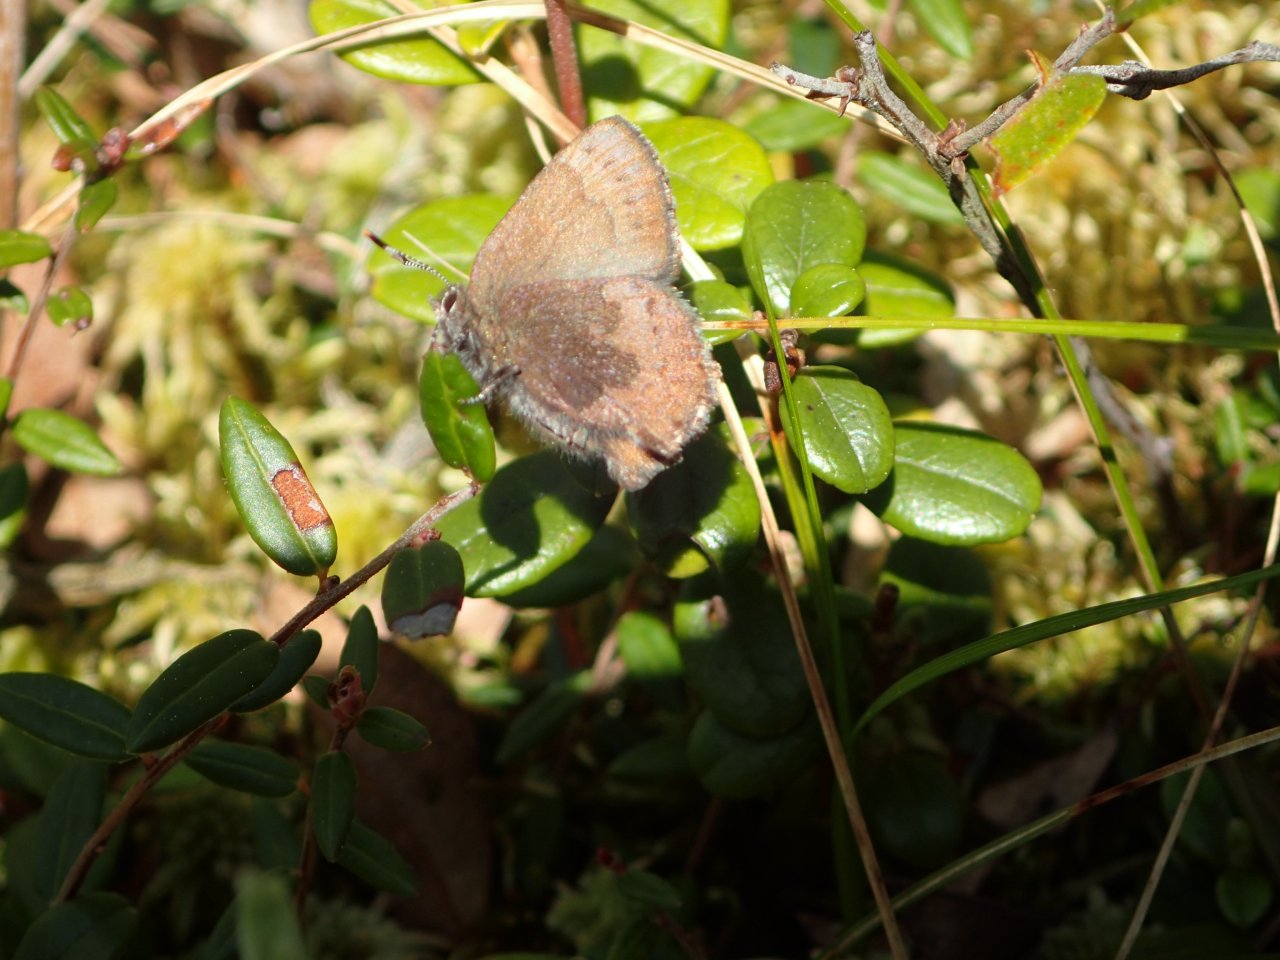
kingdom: Animalia
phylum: Arthropoda
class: Insecta
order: Lepidoptera
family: Lycaenidae
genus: Incisalia
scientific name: Incisalia irioides
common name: Brown Elfin
